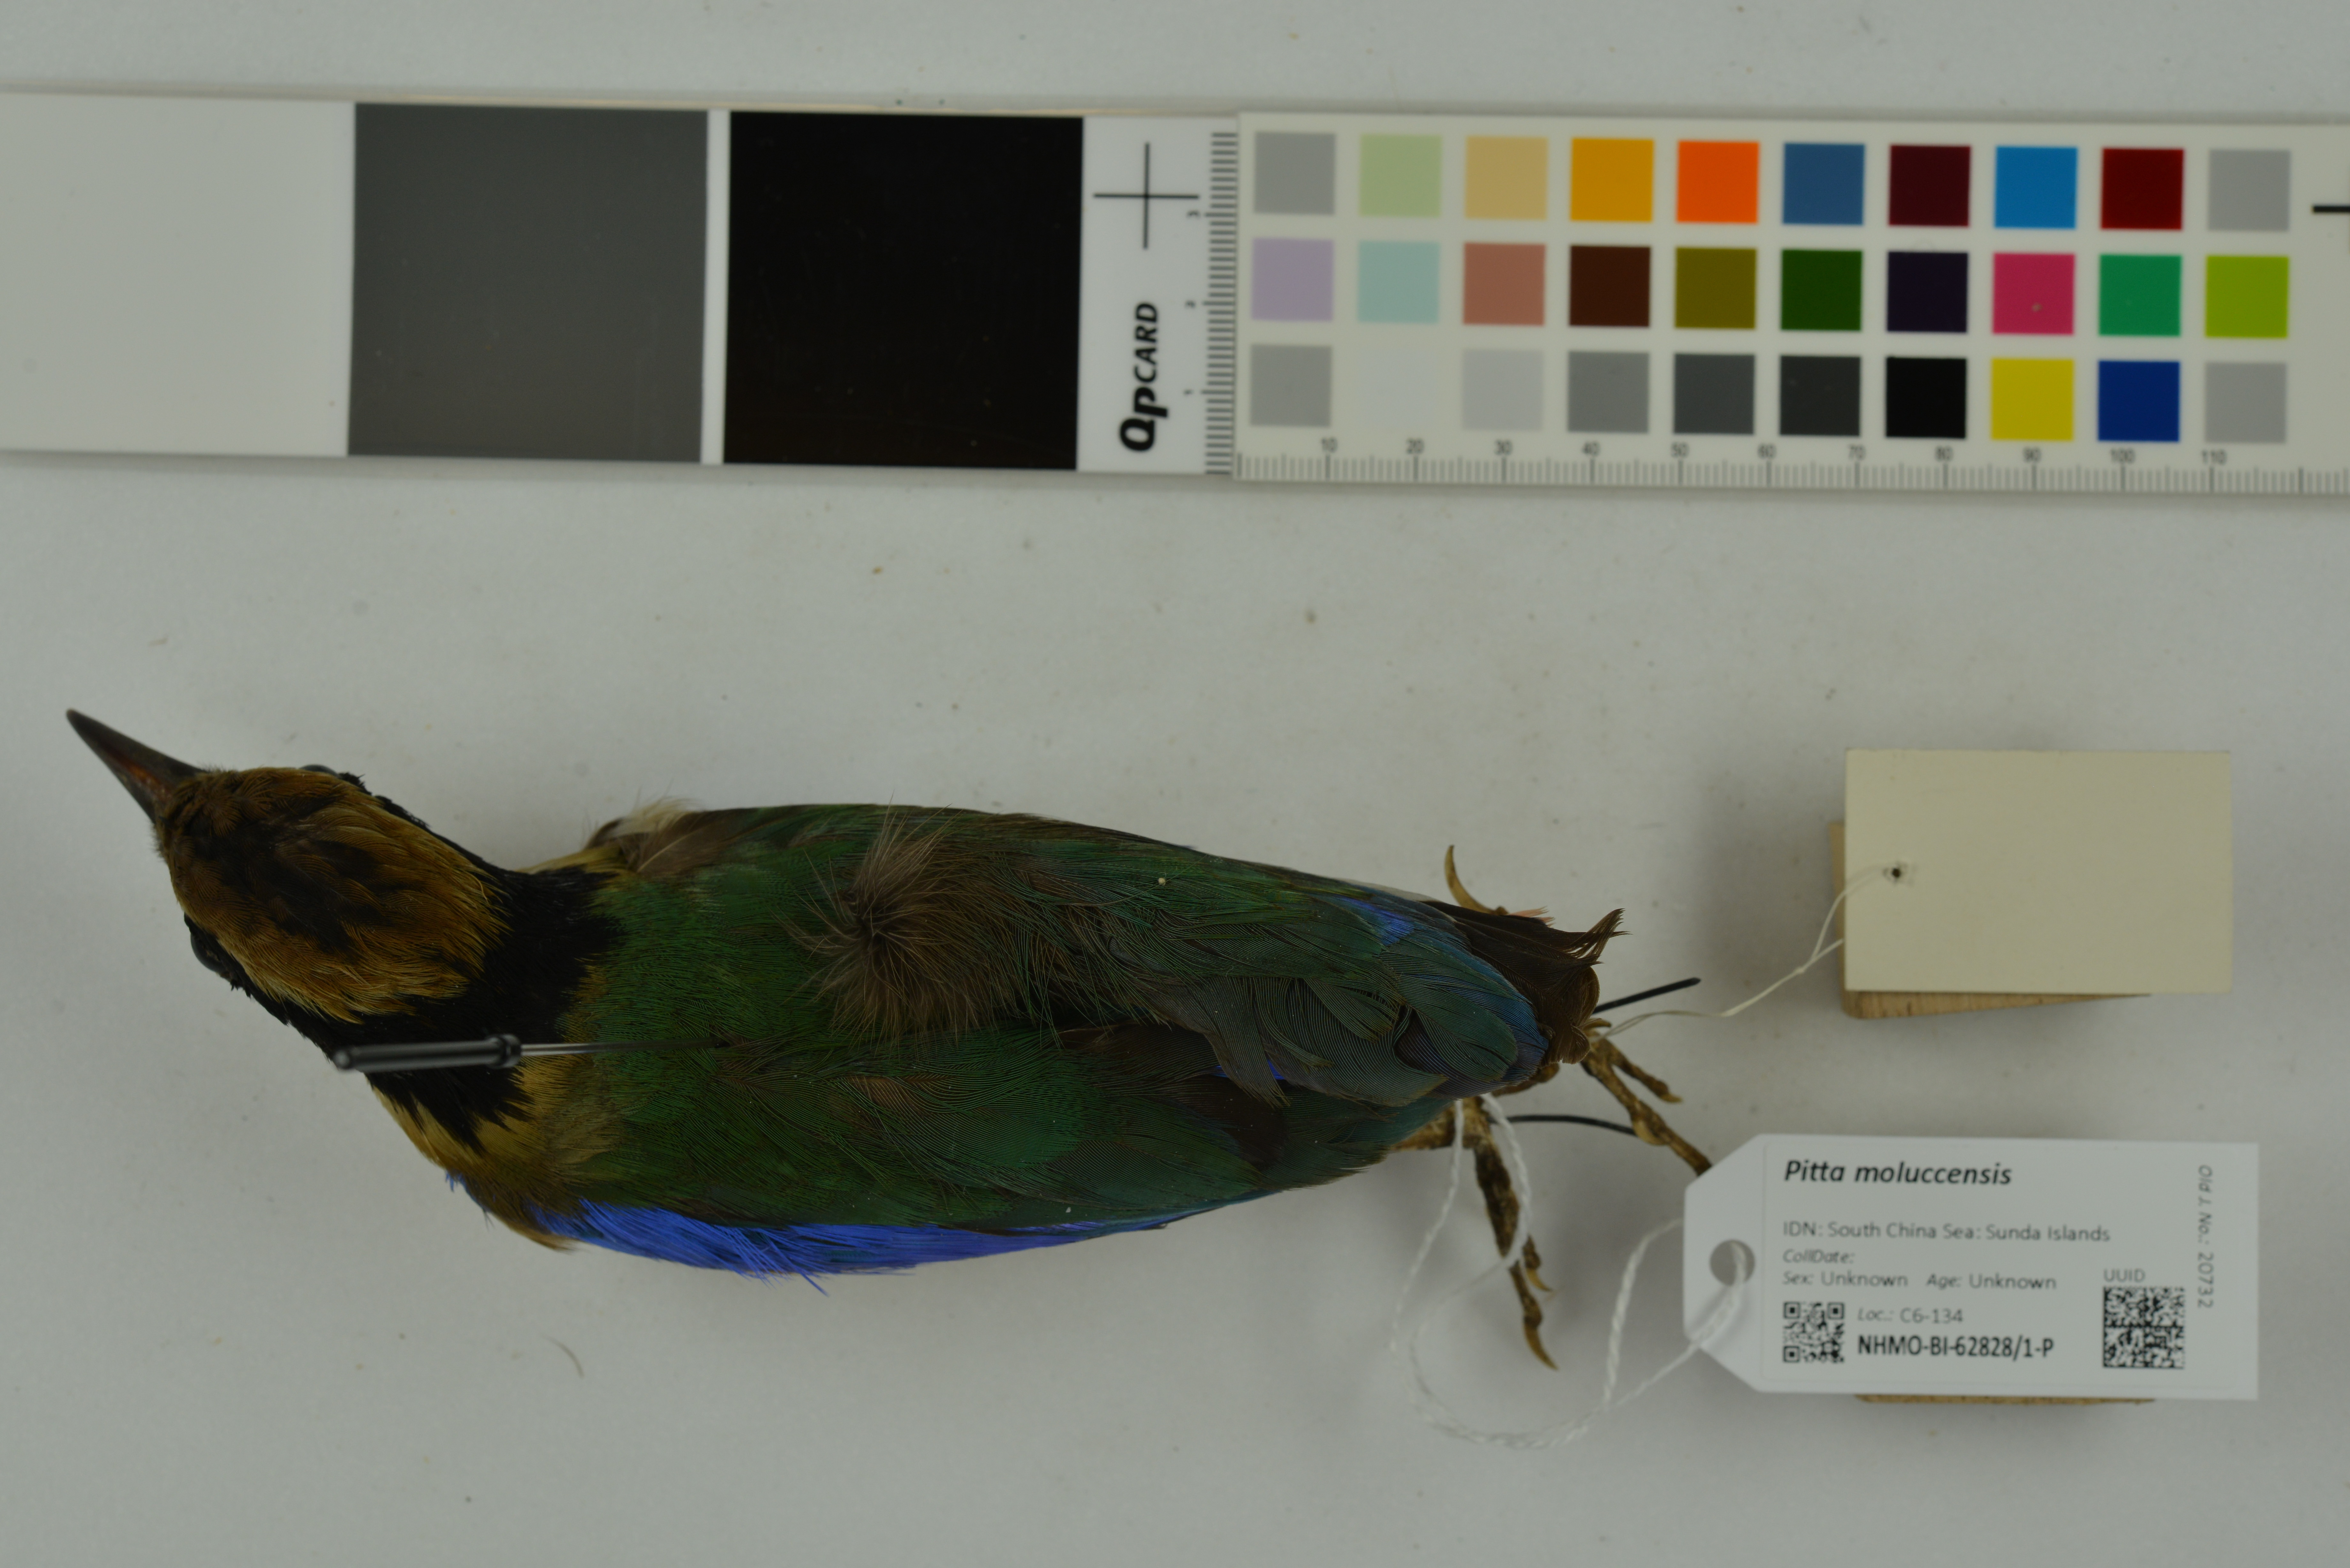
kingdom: Animalia
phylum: Chordata
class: Aves
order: Passeriformes
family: Pittidae
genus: Pitta
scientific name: Pitta moluccensis
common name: Blue-winged pitta
